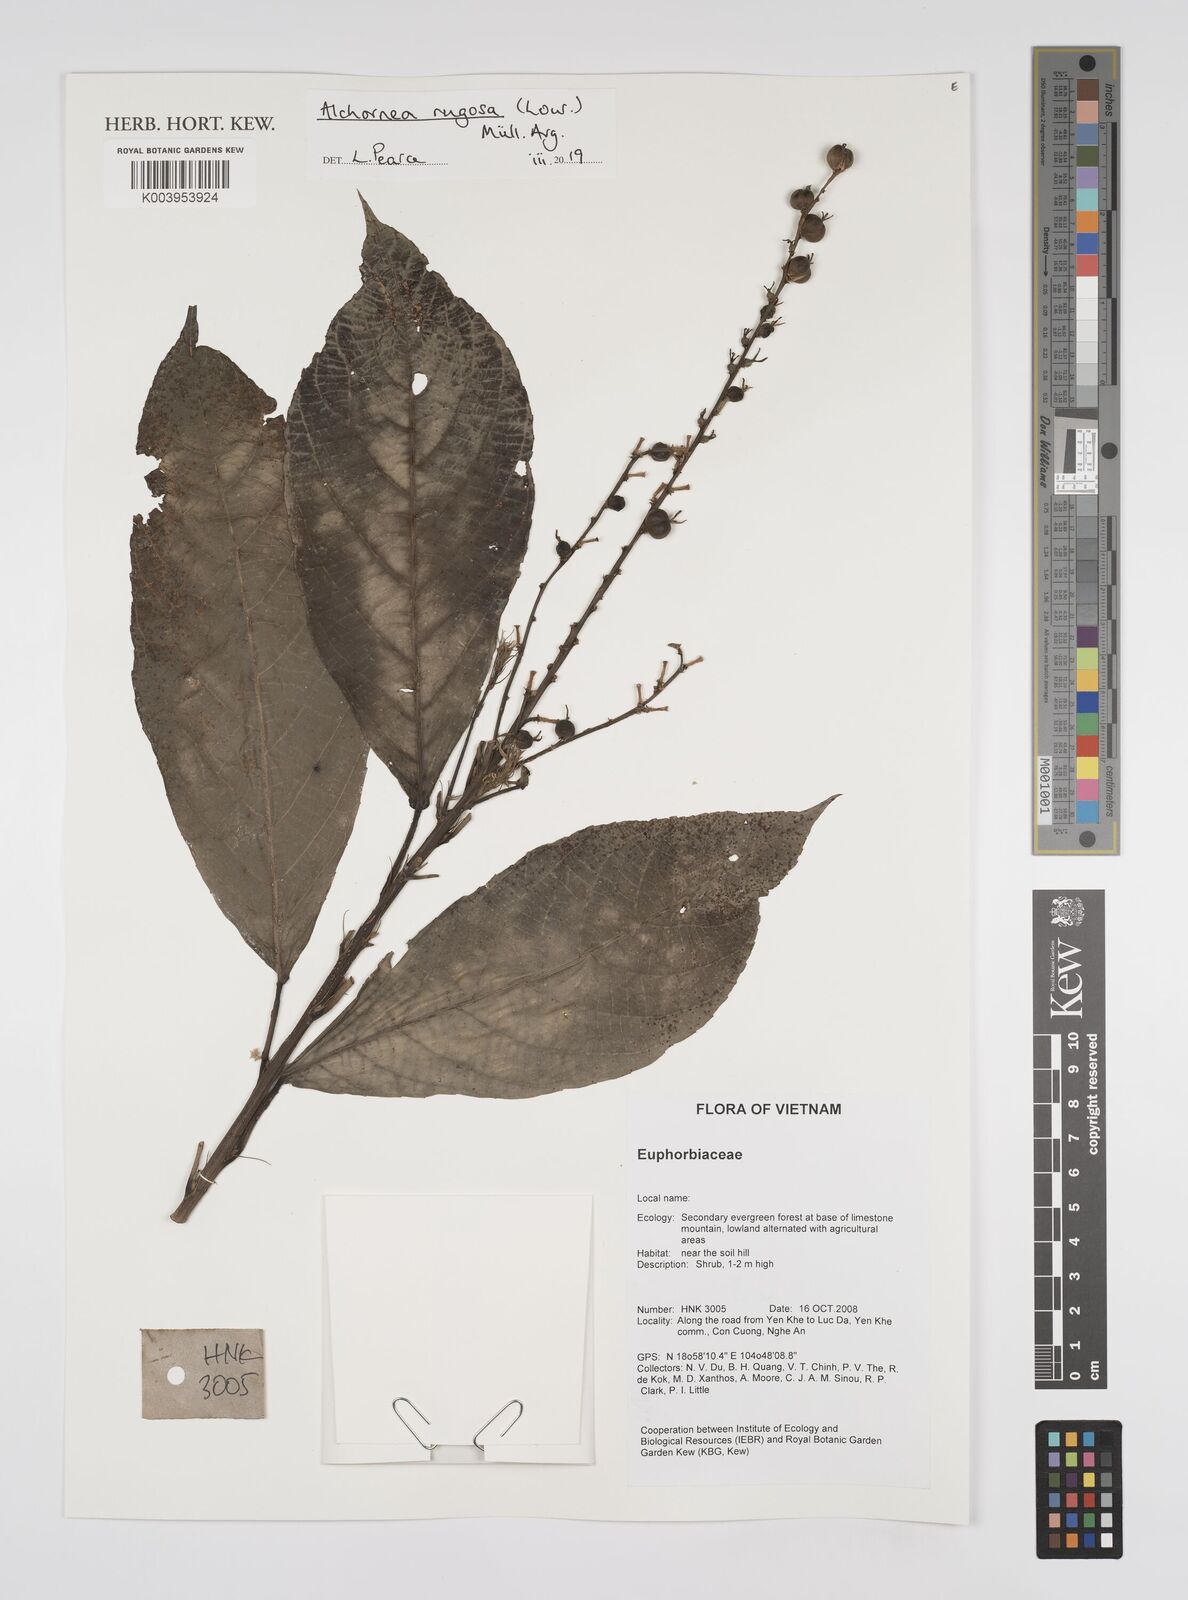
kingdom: Plantae
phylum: Tracheophyta
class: Magnoliopsida
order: Malpighiales
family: Euphorbiaceae
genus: Alchornea
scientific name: Alchornea rugosa
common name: Alchorntree
